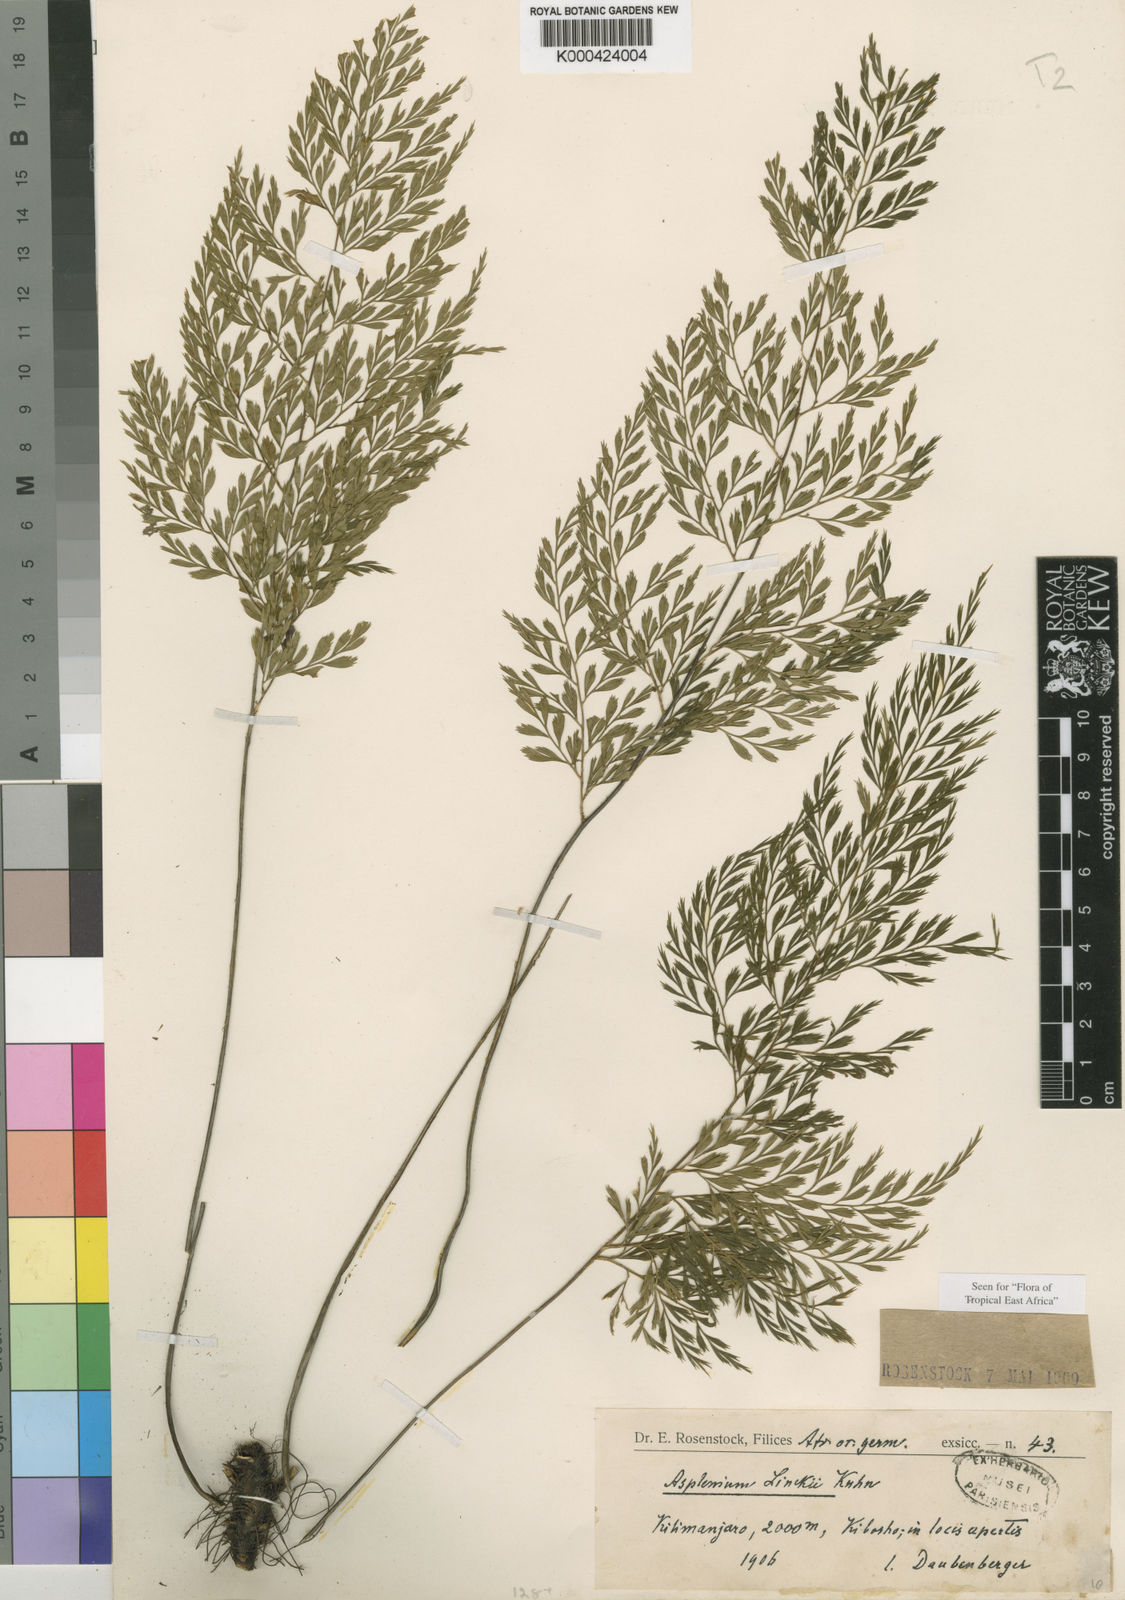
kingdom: Plantae
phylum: Tracheophyta
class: Polypodiopsida
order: Polypodiales
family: Aspleniaceae
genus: Asplenium
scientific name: Asplenium linckii
